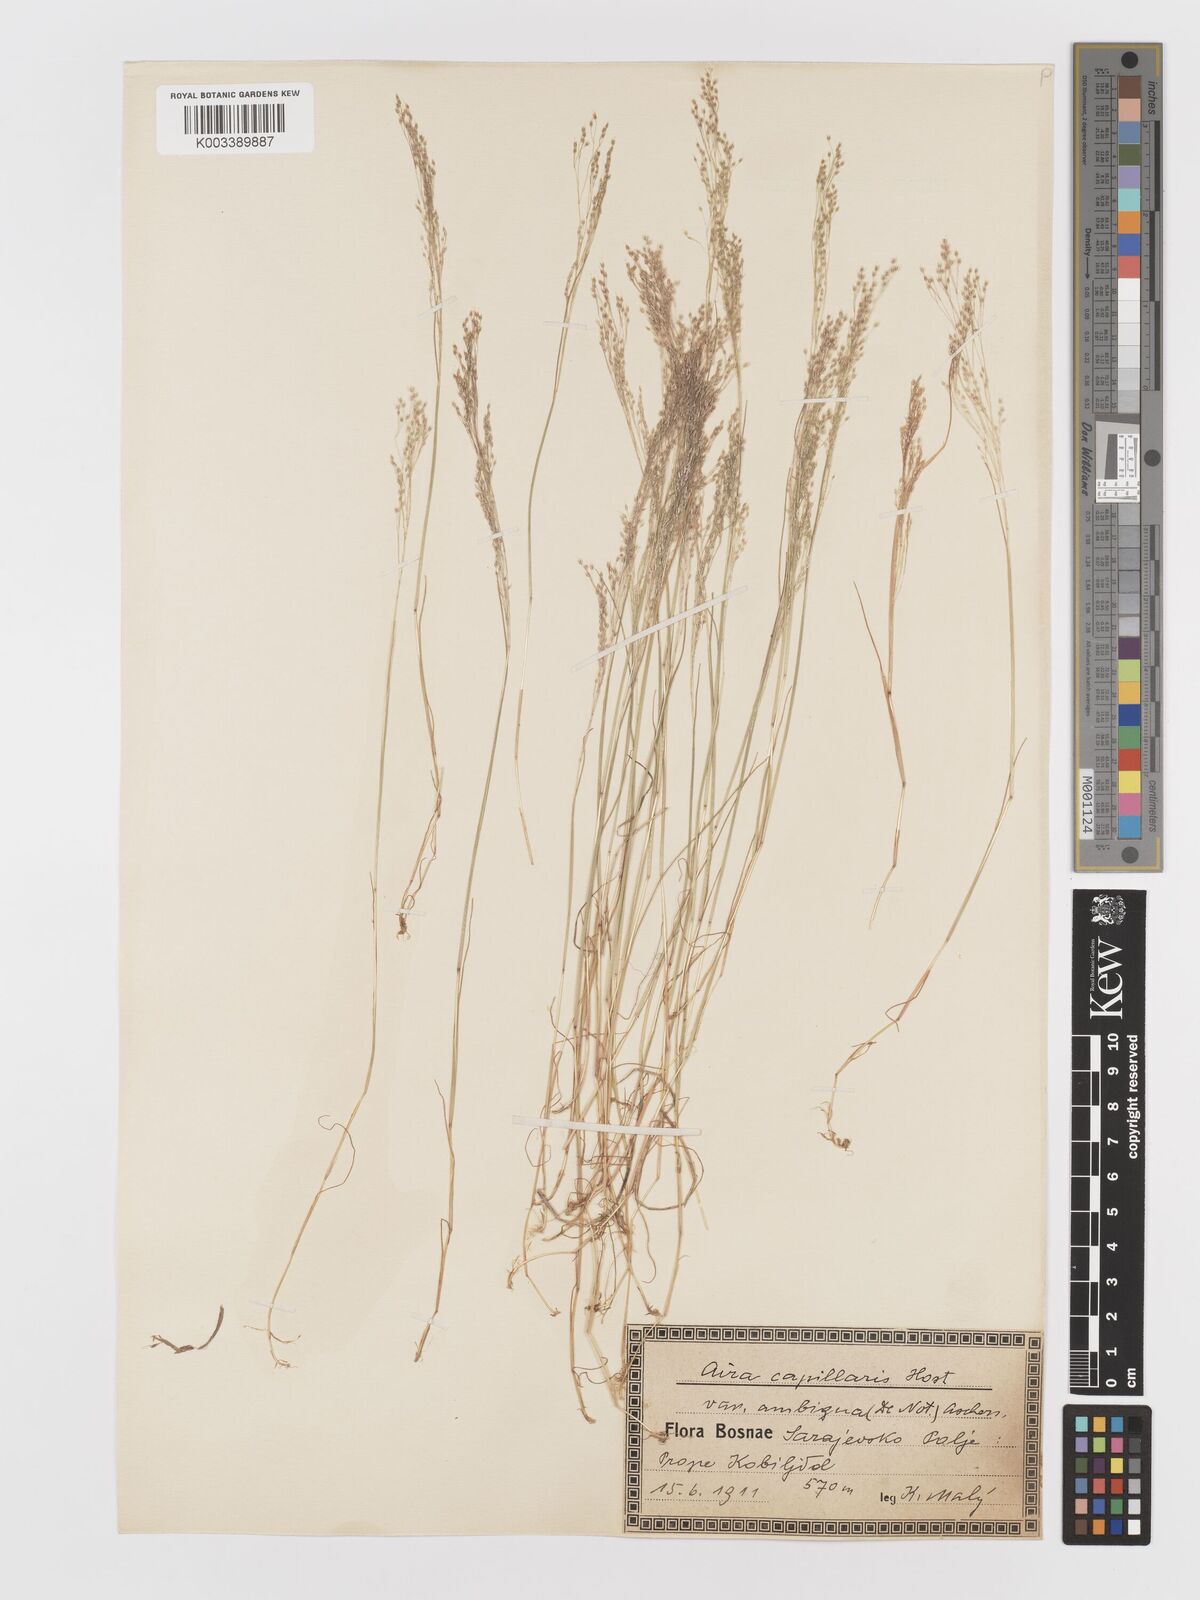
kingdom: Plantae
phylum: Tracheophyta
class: Liliopsida
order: Poales
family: Poaceae
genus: Aira
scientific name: Aira elegans
